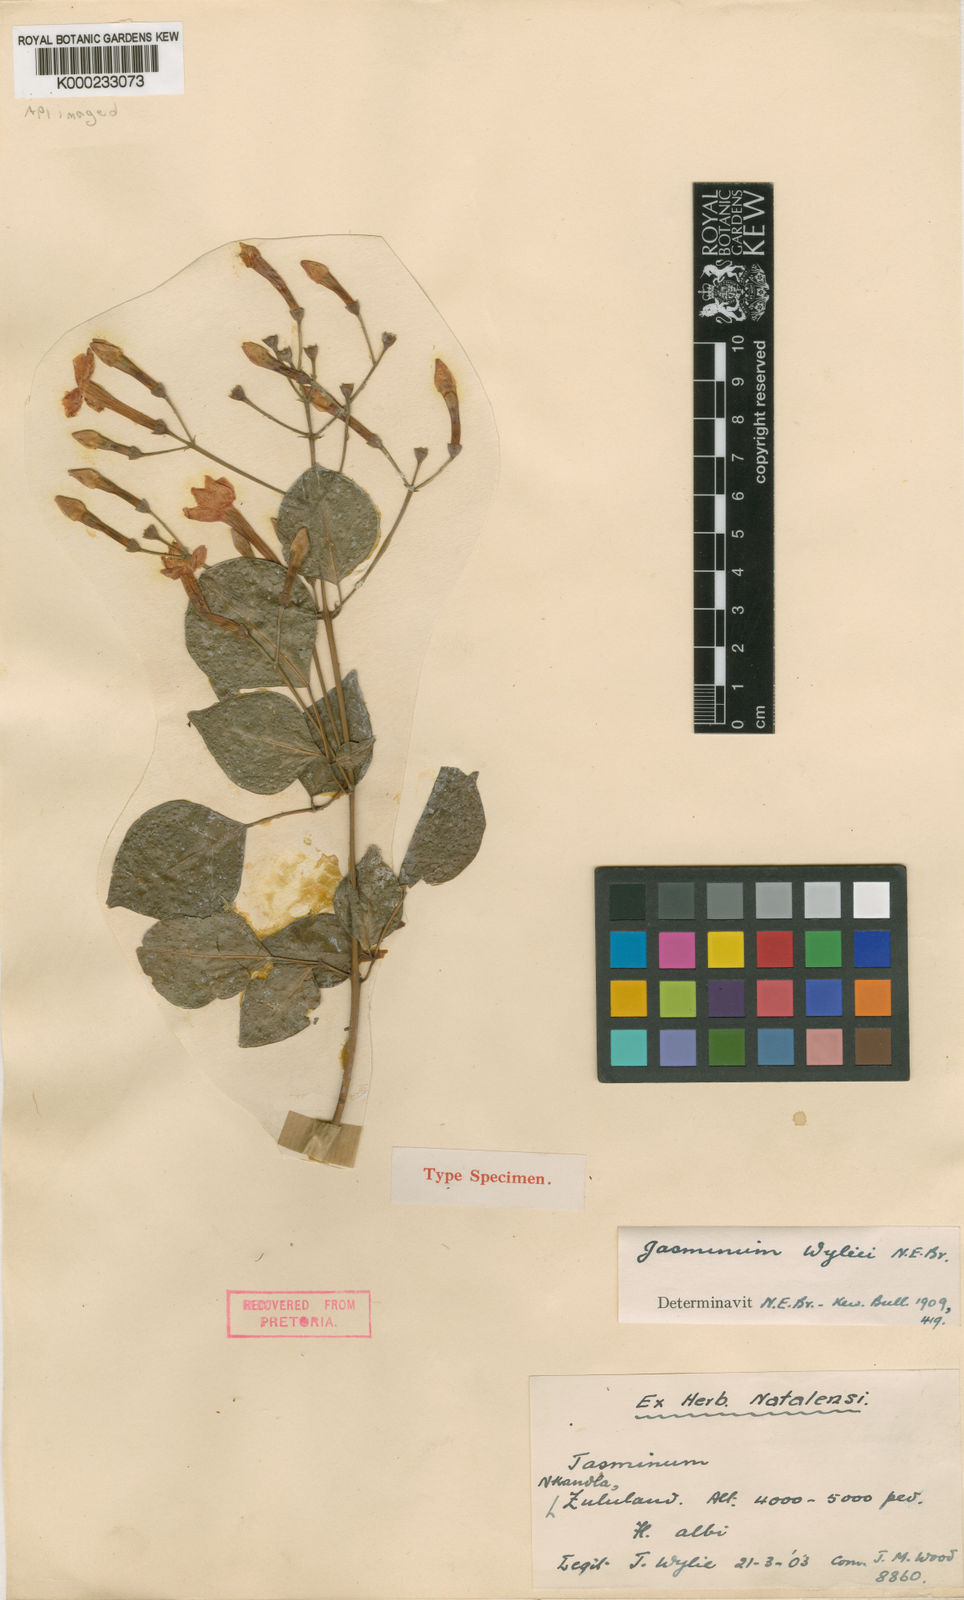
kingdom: Plantae
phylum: Tracheophyta
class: Magnoliopsida
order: Lamiales
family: Oleaceae
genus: Jasminum
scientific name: Jasminum abyssinicum
